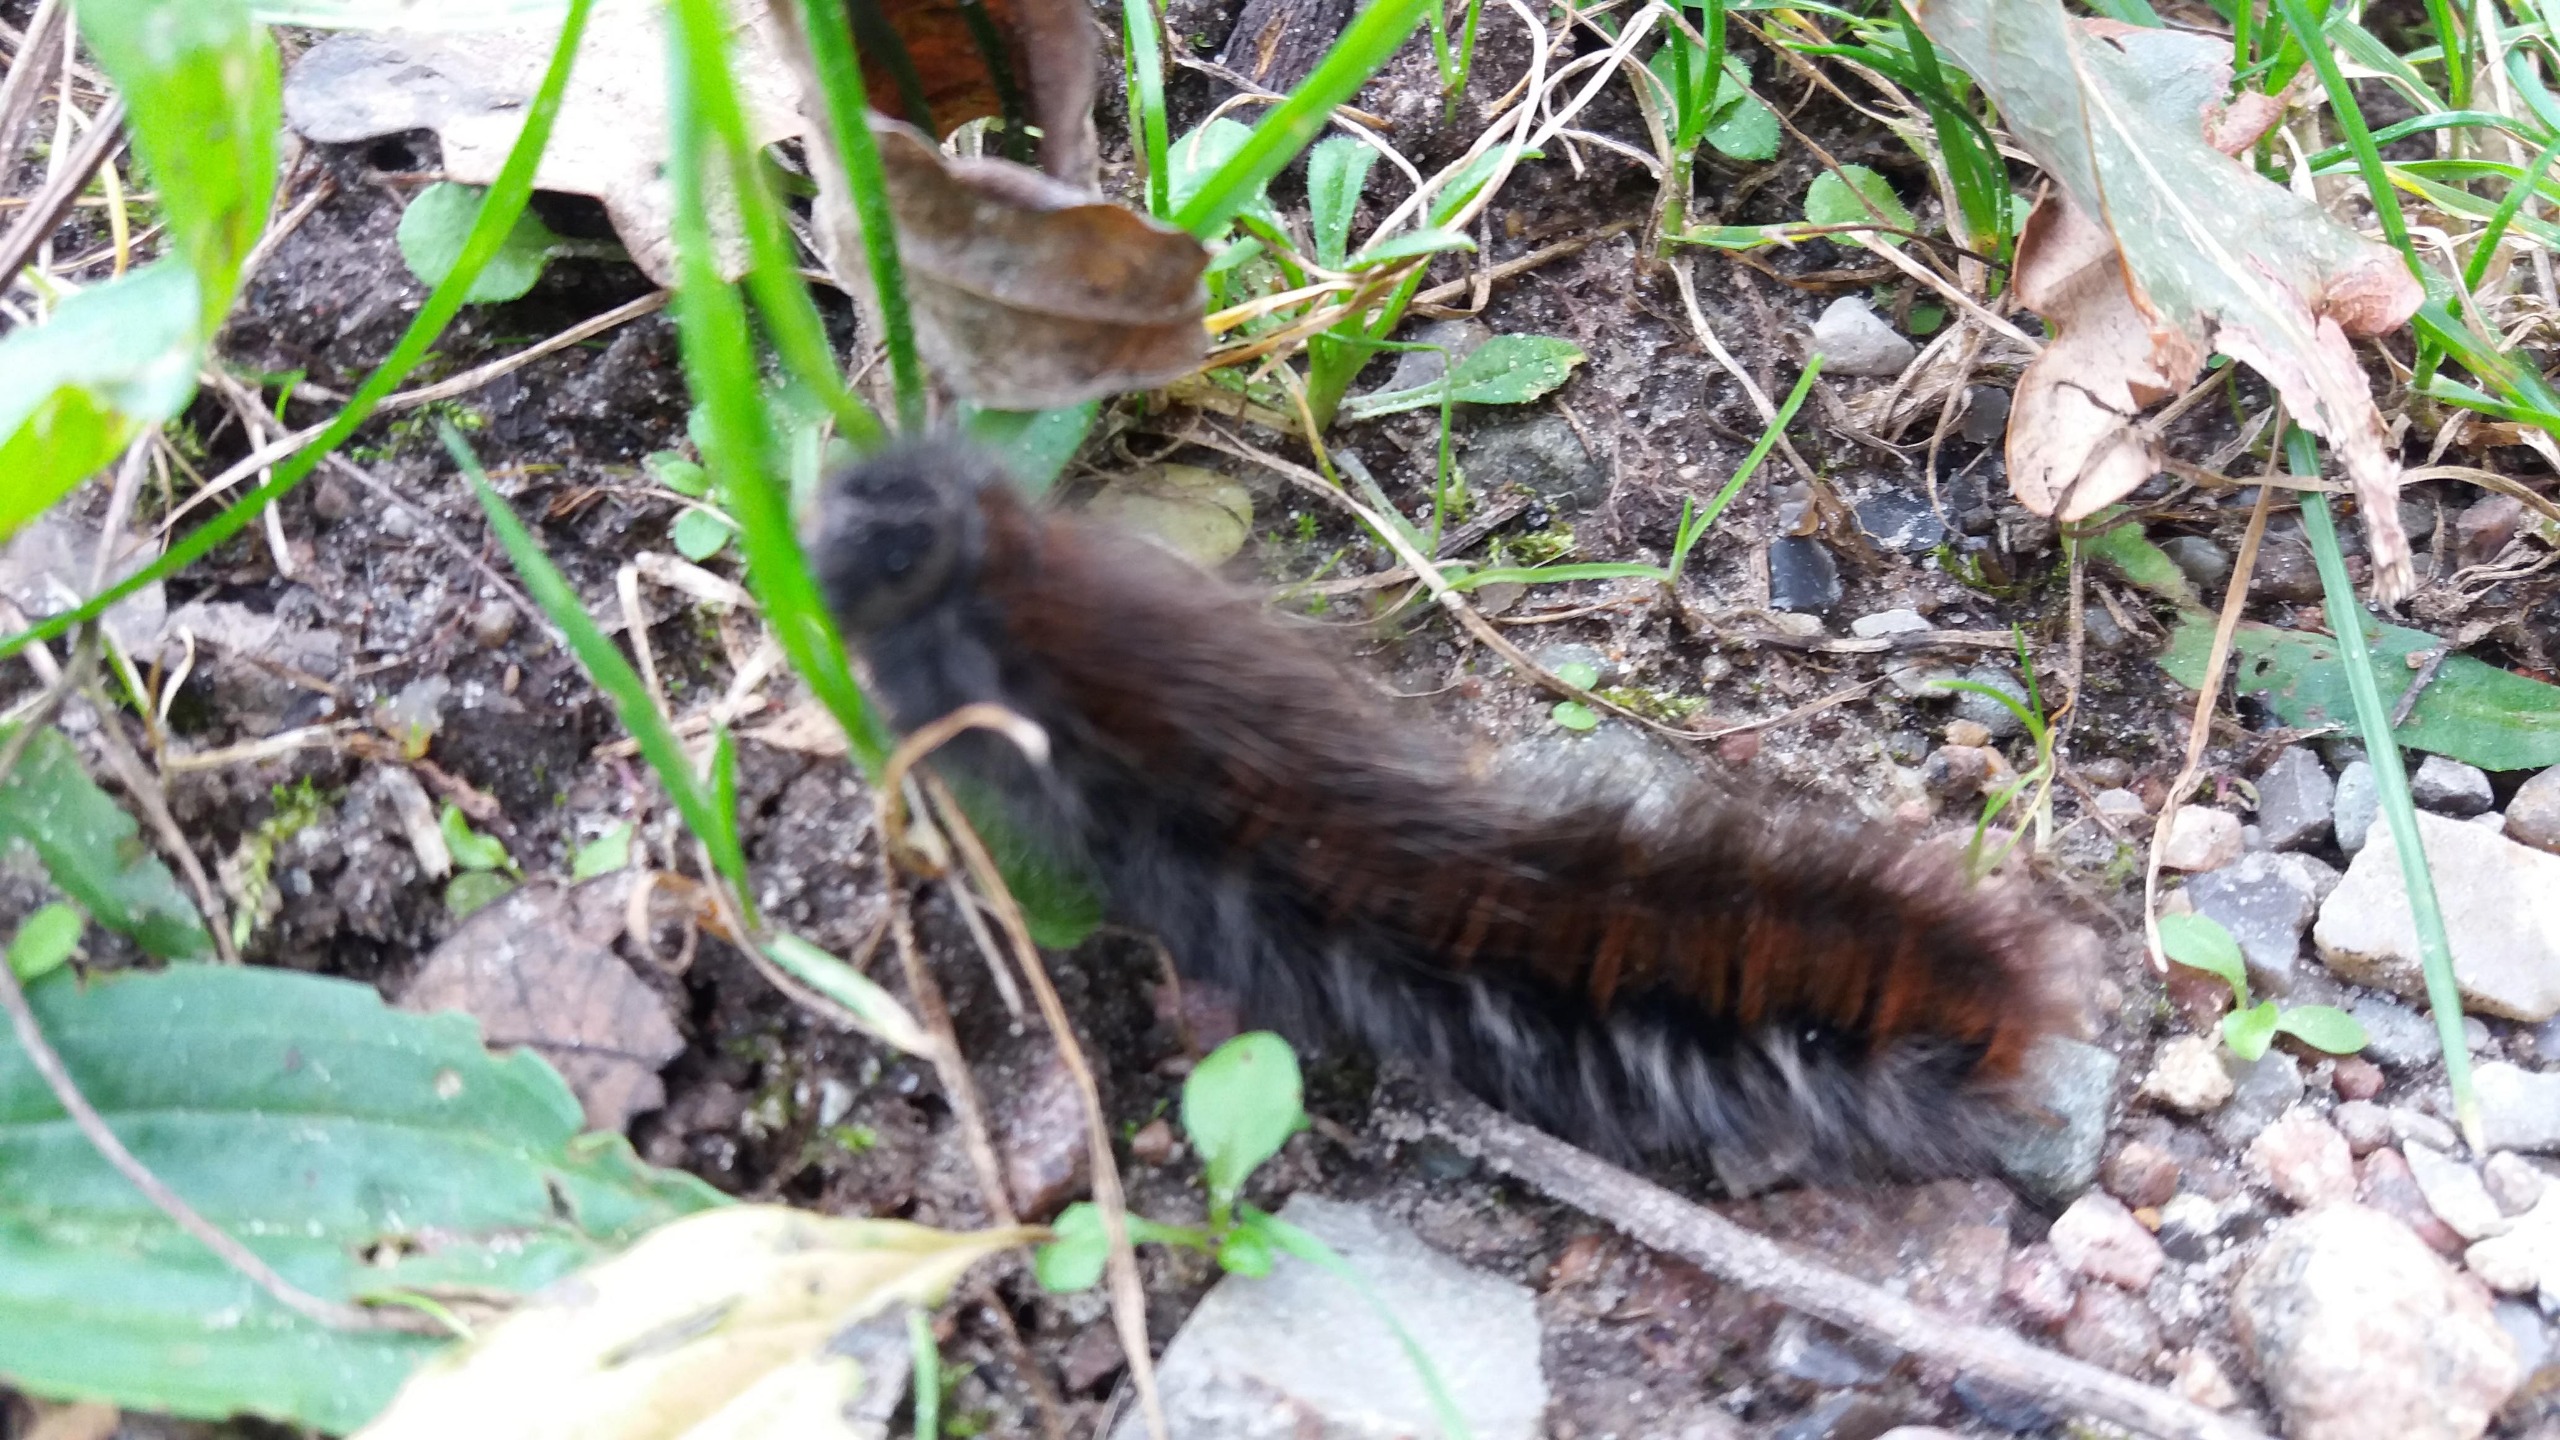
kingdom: Animalia
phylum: Arthropoda
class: Insecta
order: Lepidoptera
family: Lasiocampidae
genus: Macrothylacia
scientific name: Macrothylacia rubi
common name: Brombærspinder
